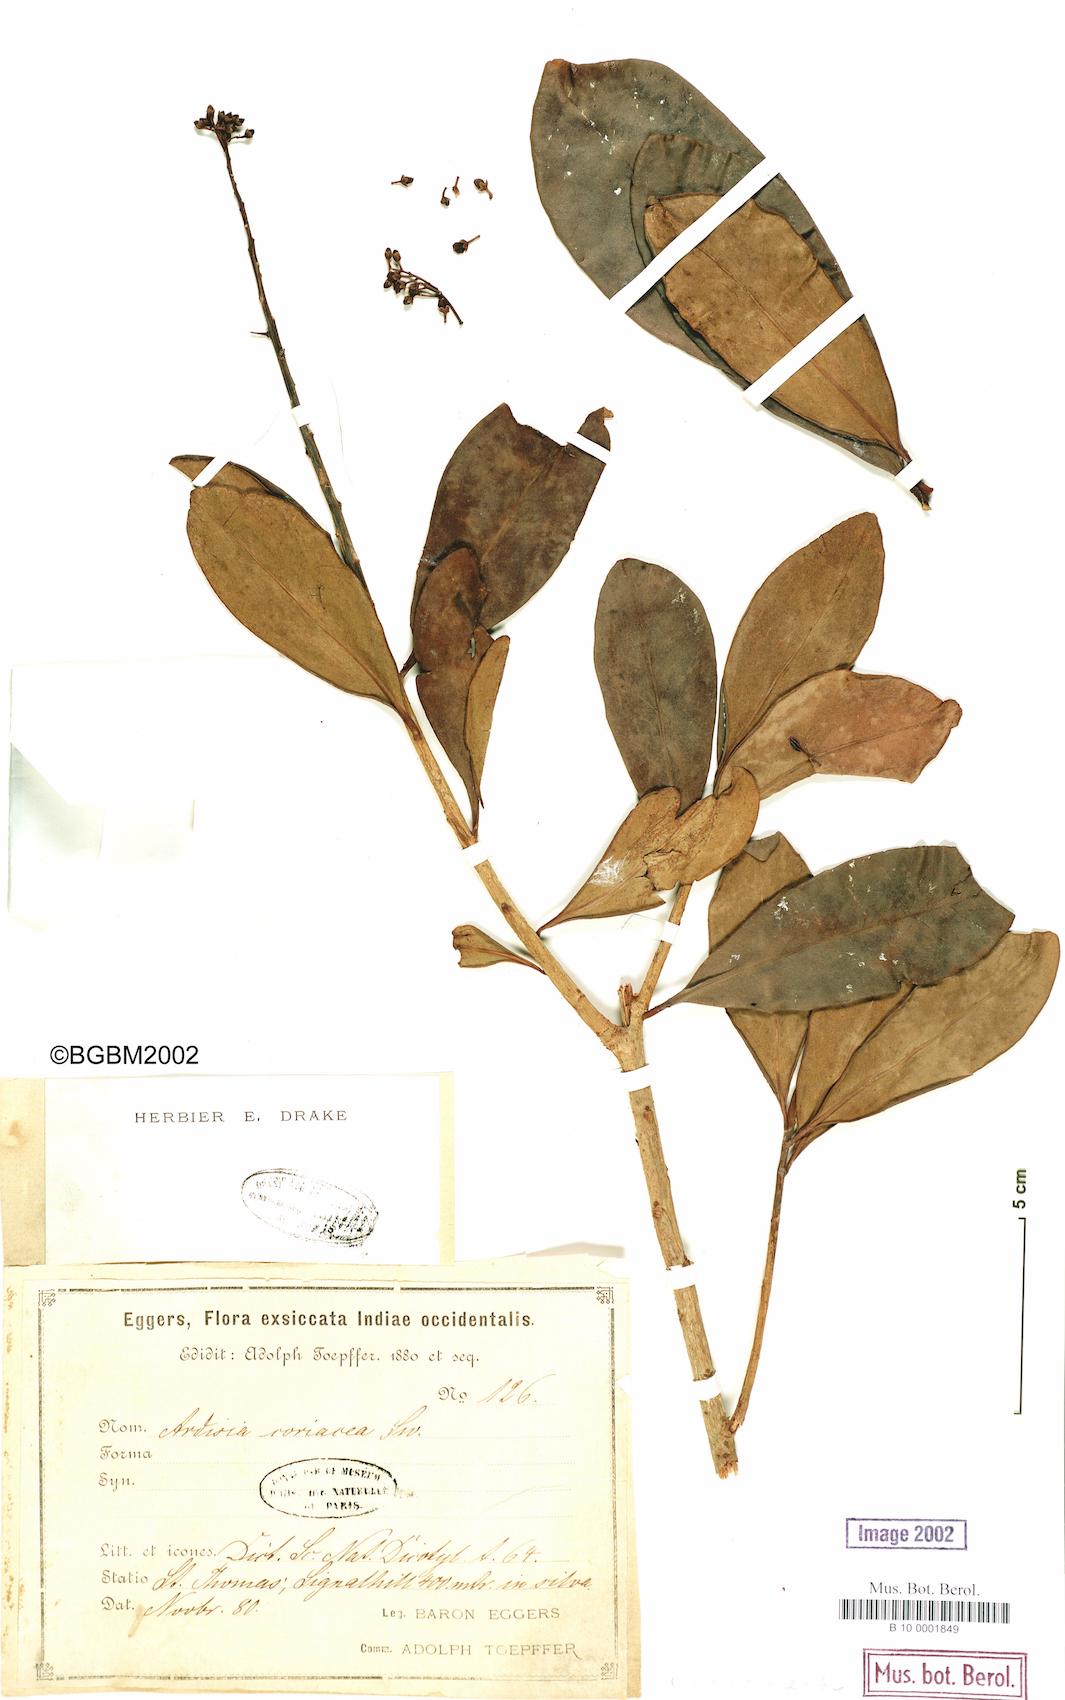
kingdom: Plantae
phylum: Tracheophyta
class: Magnoliopsida
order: Ericales
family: Primulaceae
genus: Myrsine
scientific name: Myrsine coriacea
